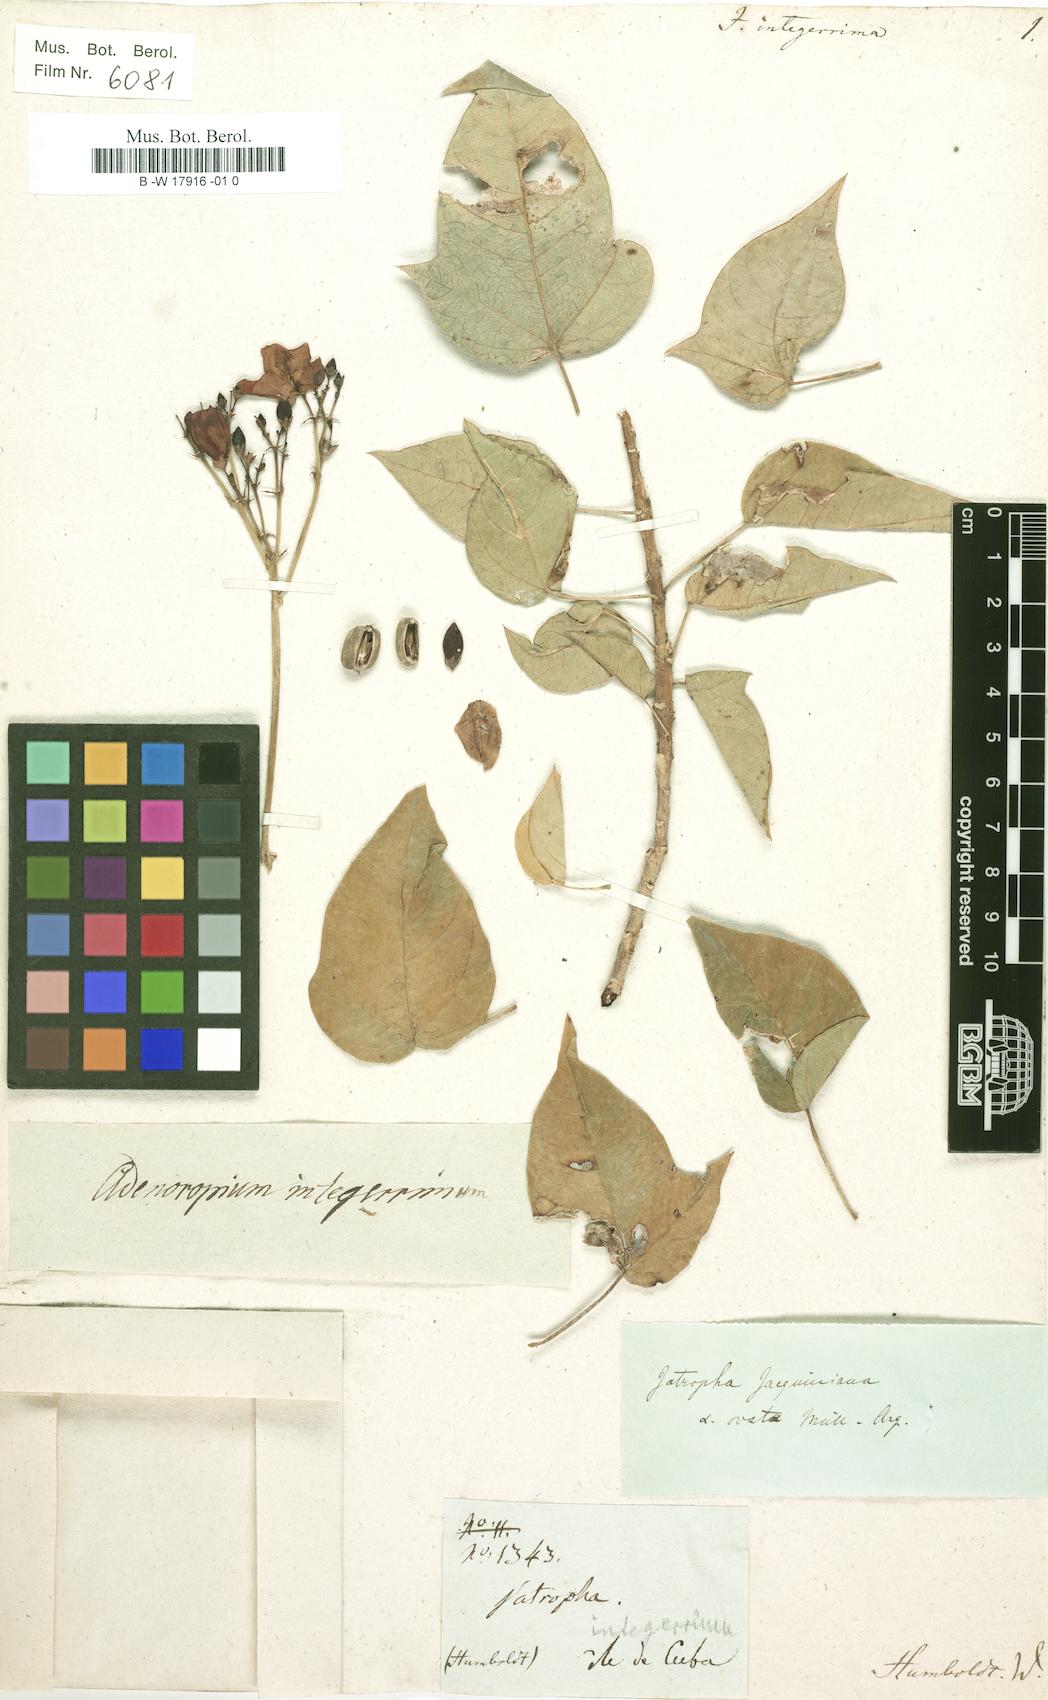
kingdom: Plantae
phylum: Tracheophyta
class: Magnoliopsida
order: Malpighiales
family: Euphorbiaceae
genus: Jatropha
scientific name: Jatropha integerrima
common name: Peregrina
